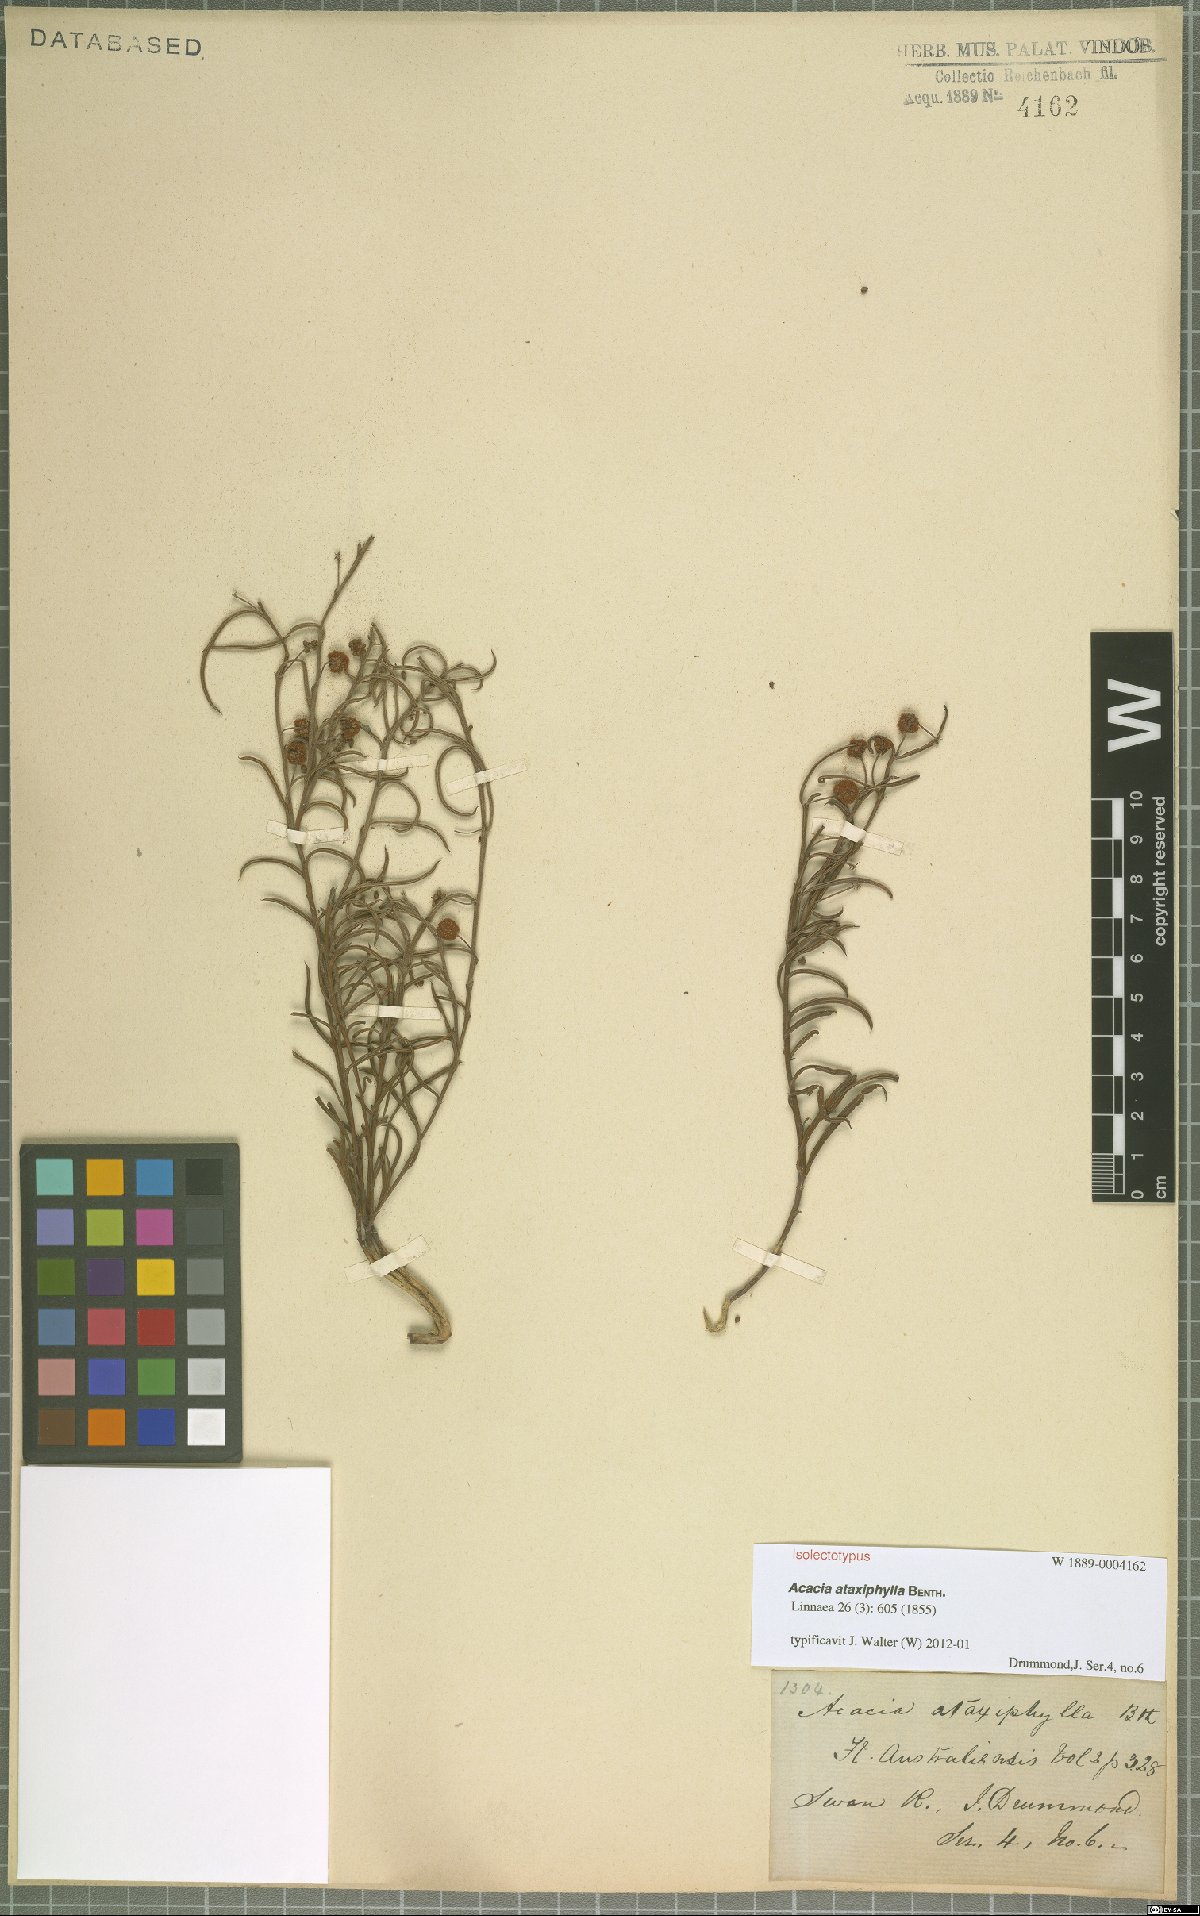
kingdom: Plantae
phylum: Tracheophyta
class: Magnoliopsida
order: Fabales
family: Fabaceae
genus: Acacia
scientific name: Acacia ataxiphylla
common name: Large-fruited tammin wattle
